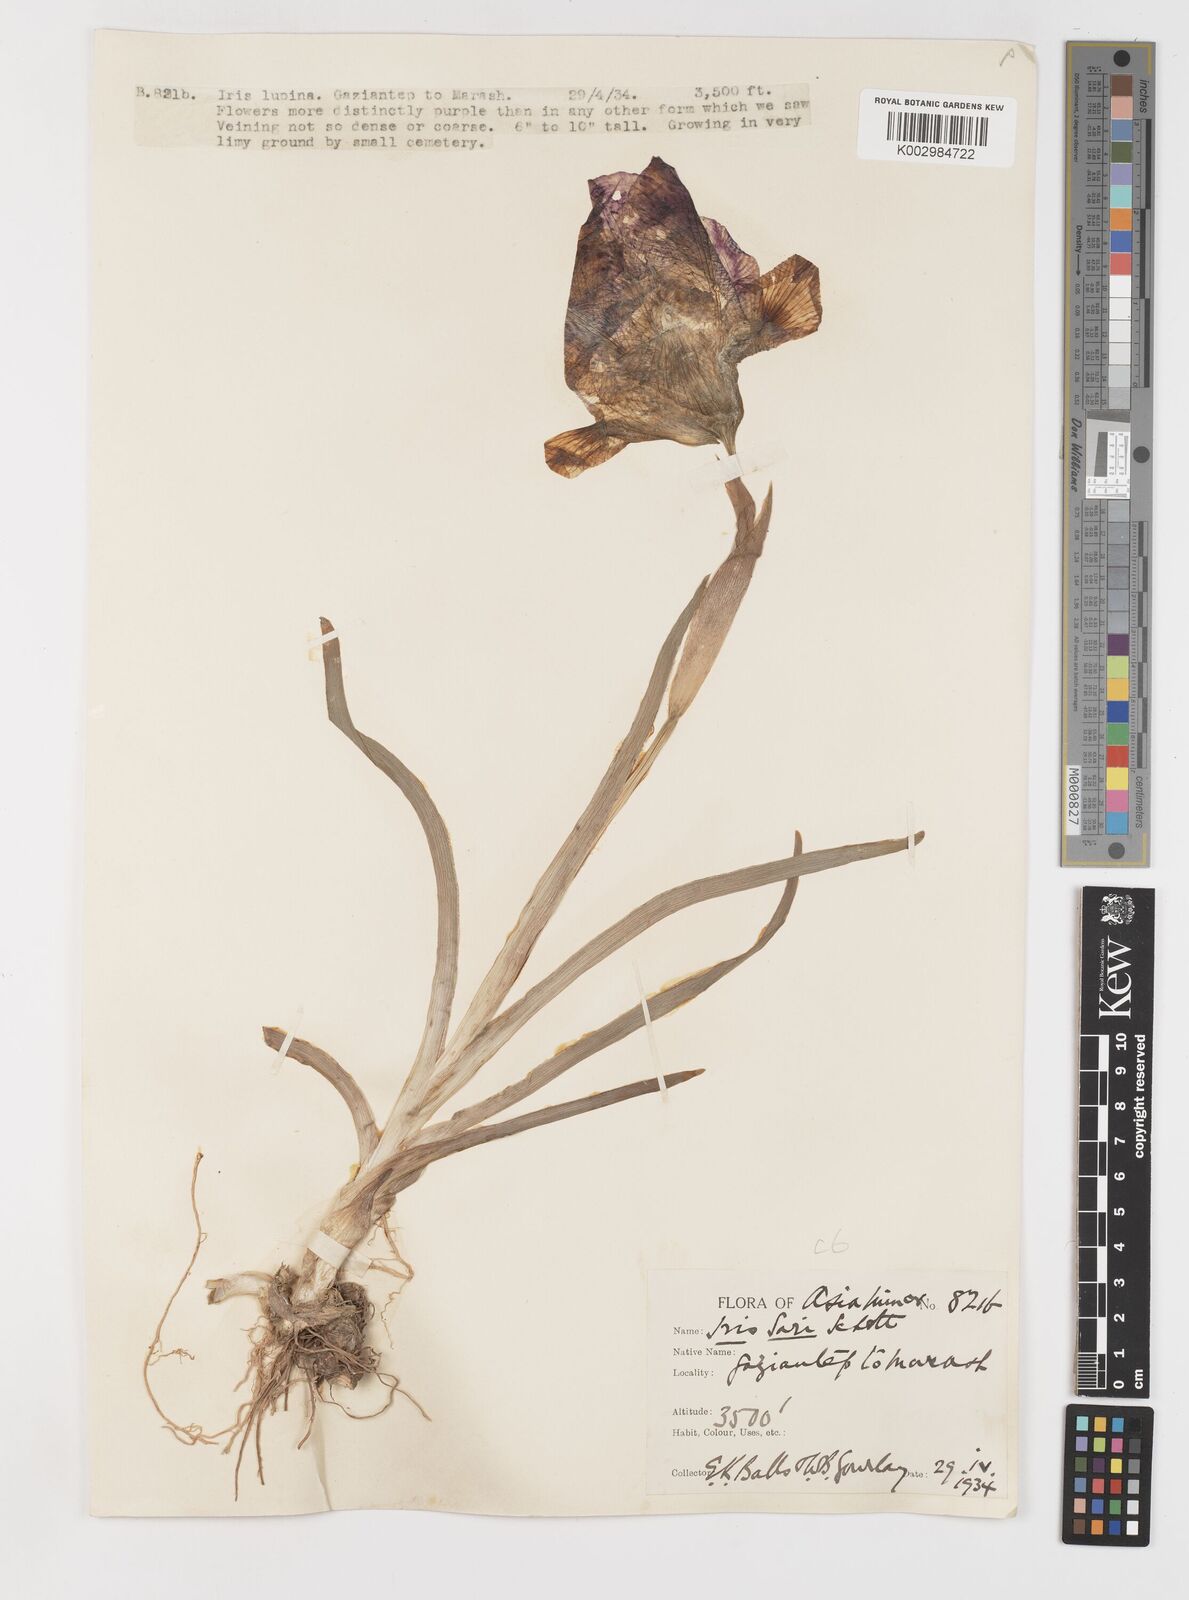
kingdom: Plantae
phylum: Tracheophyta
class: Liliopsida
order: Asparagales
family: Iridaceae
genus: Iris
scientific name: Iris sari
